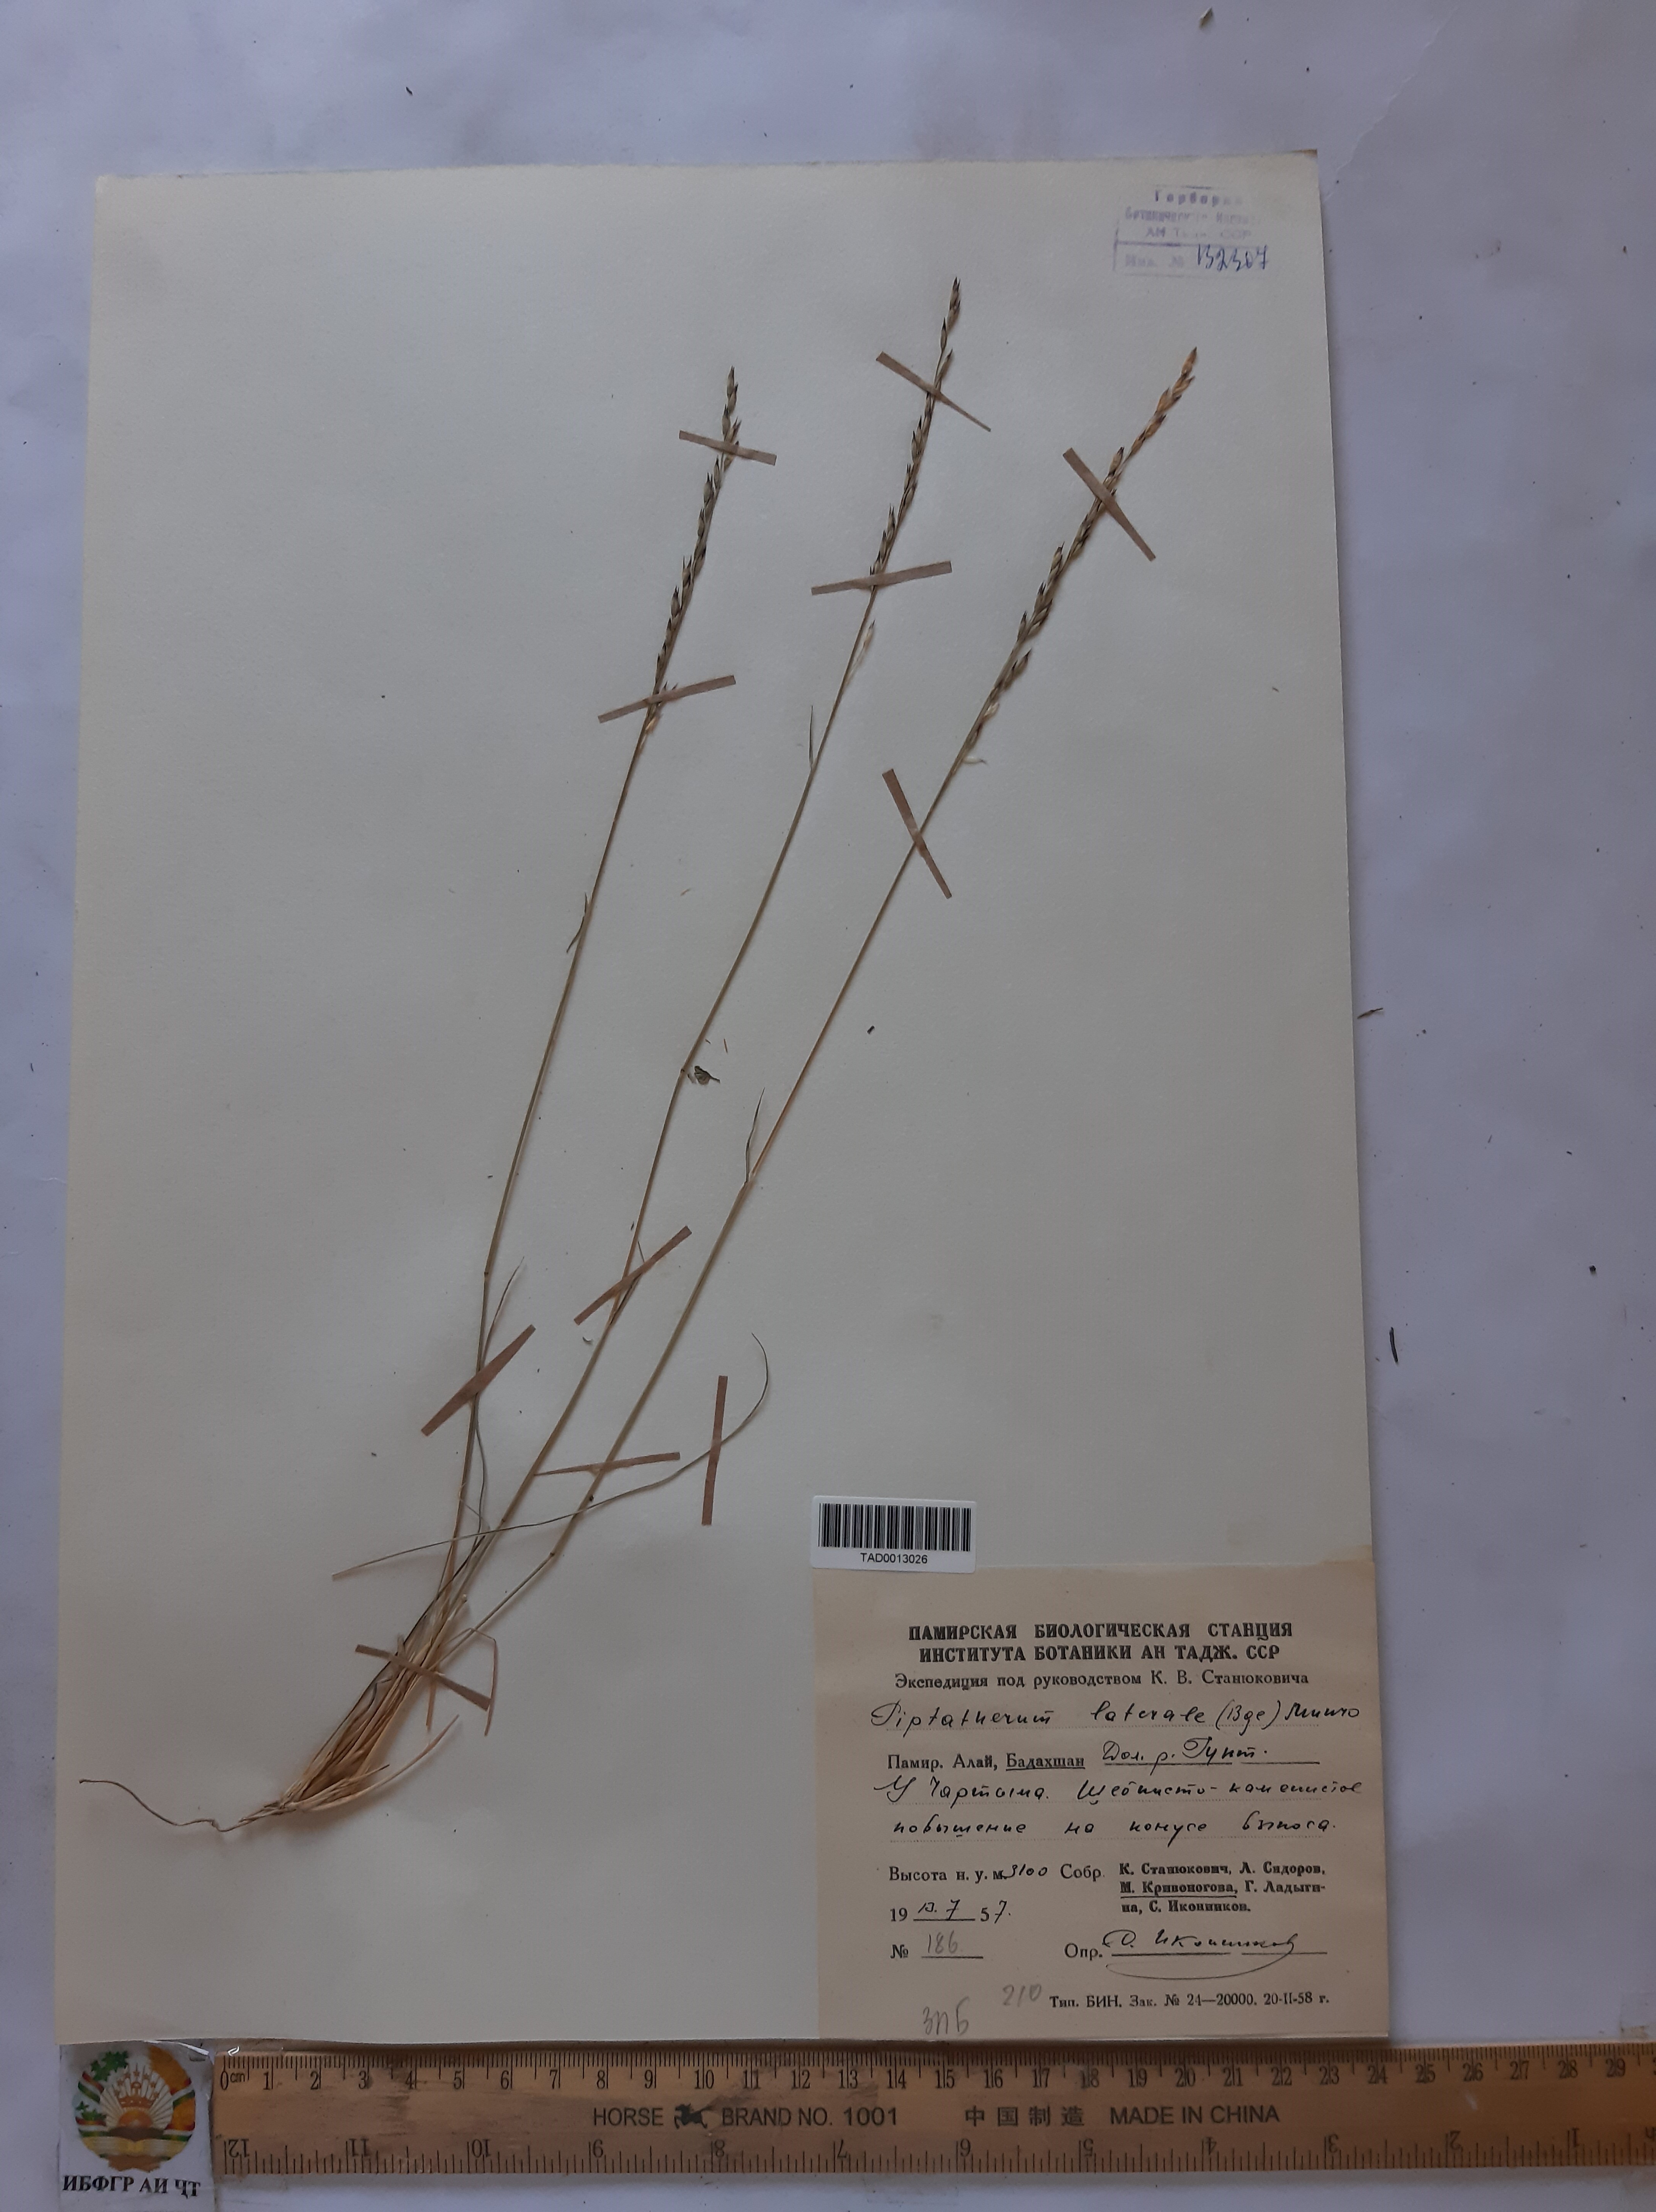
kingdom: Plantae
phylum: Tracheophyta
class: Liliopsida
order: Poales
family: Poaceae
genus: Piptatherum
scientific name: Piptatherum laterale
